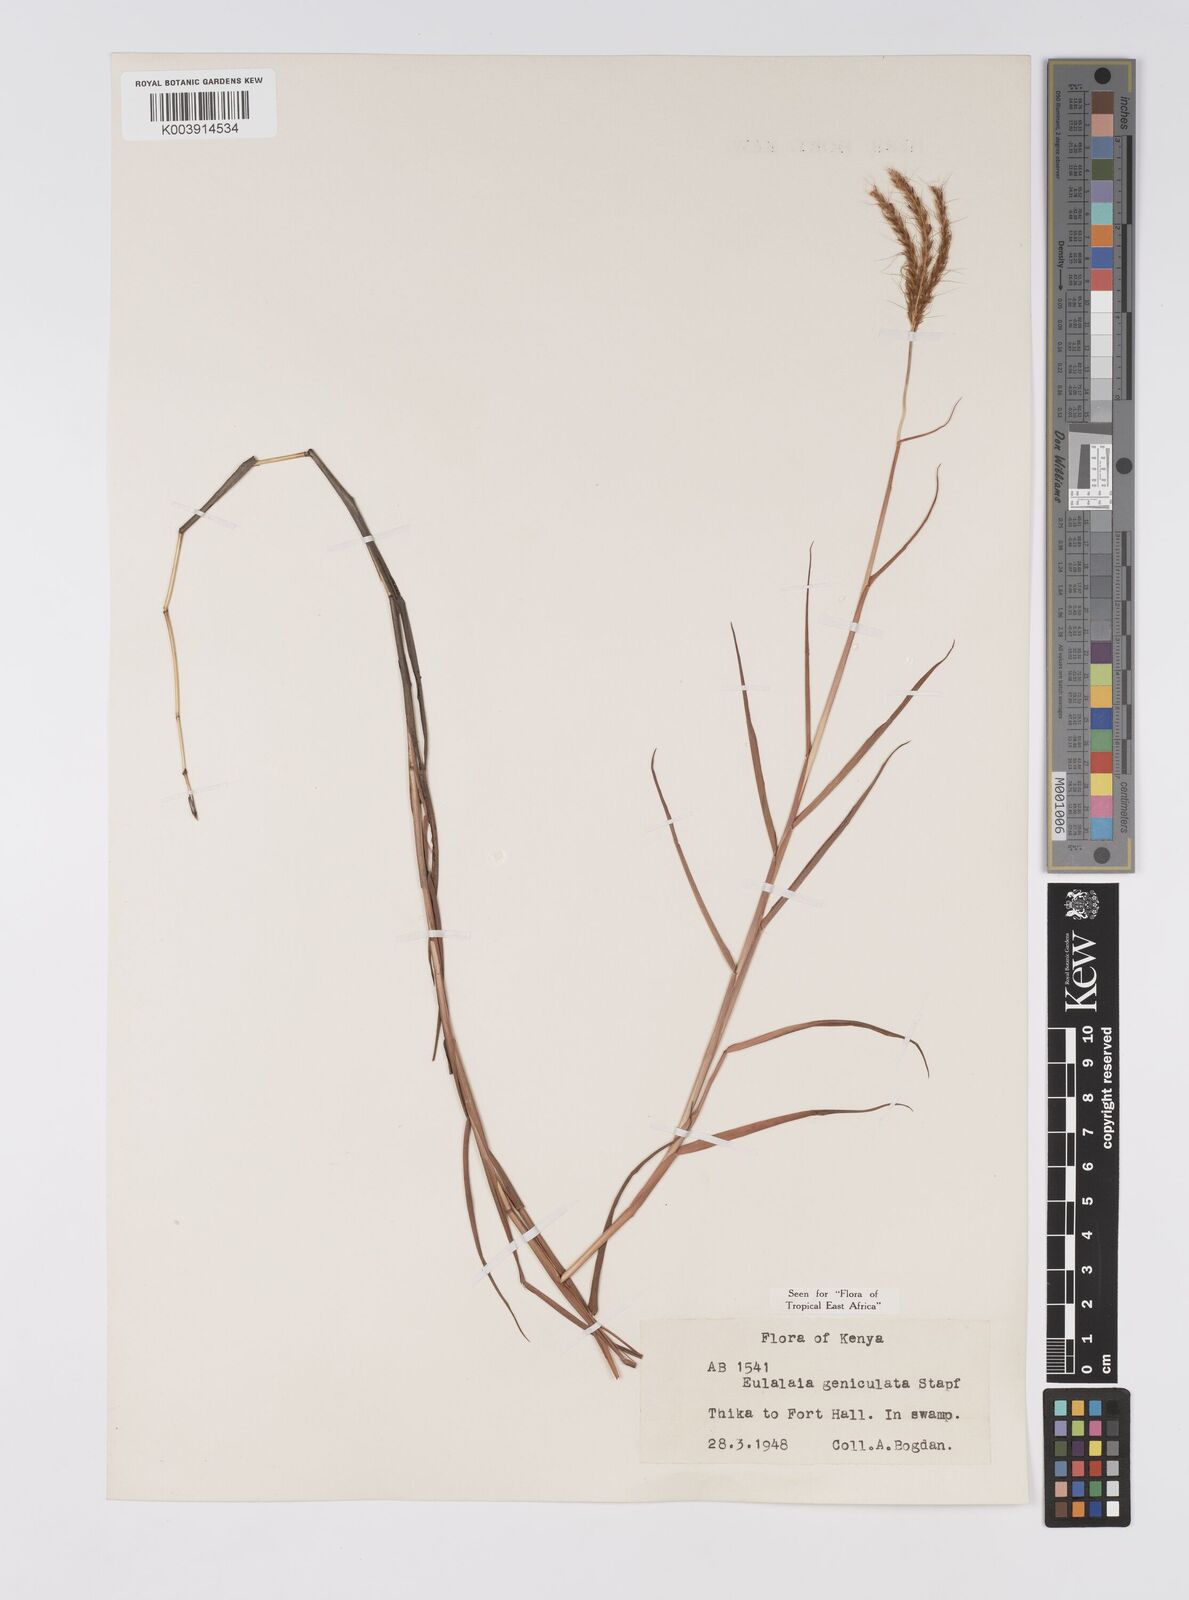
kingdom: Plantae
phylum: Tracheophyta
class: Liliopsida
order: Poales
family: Poaceae
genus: Eulalia
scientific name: Eulalia aurea
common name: Silky browntop
